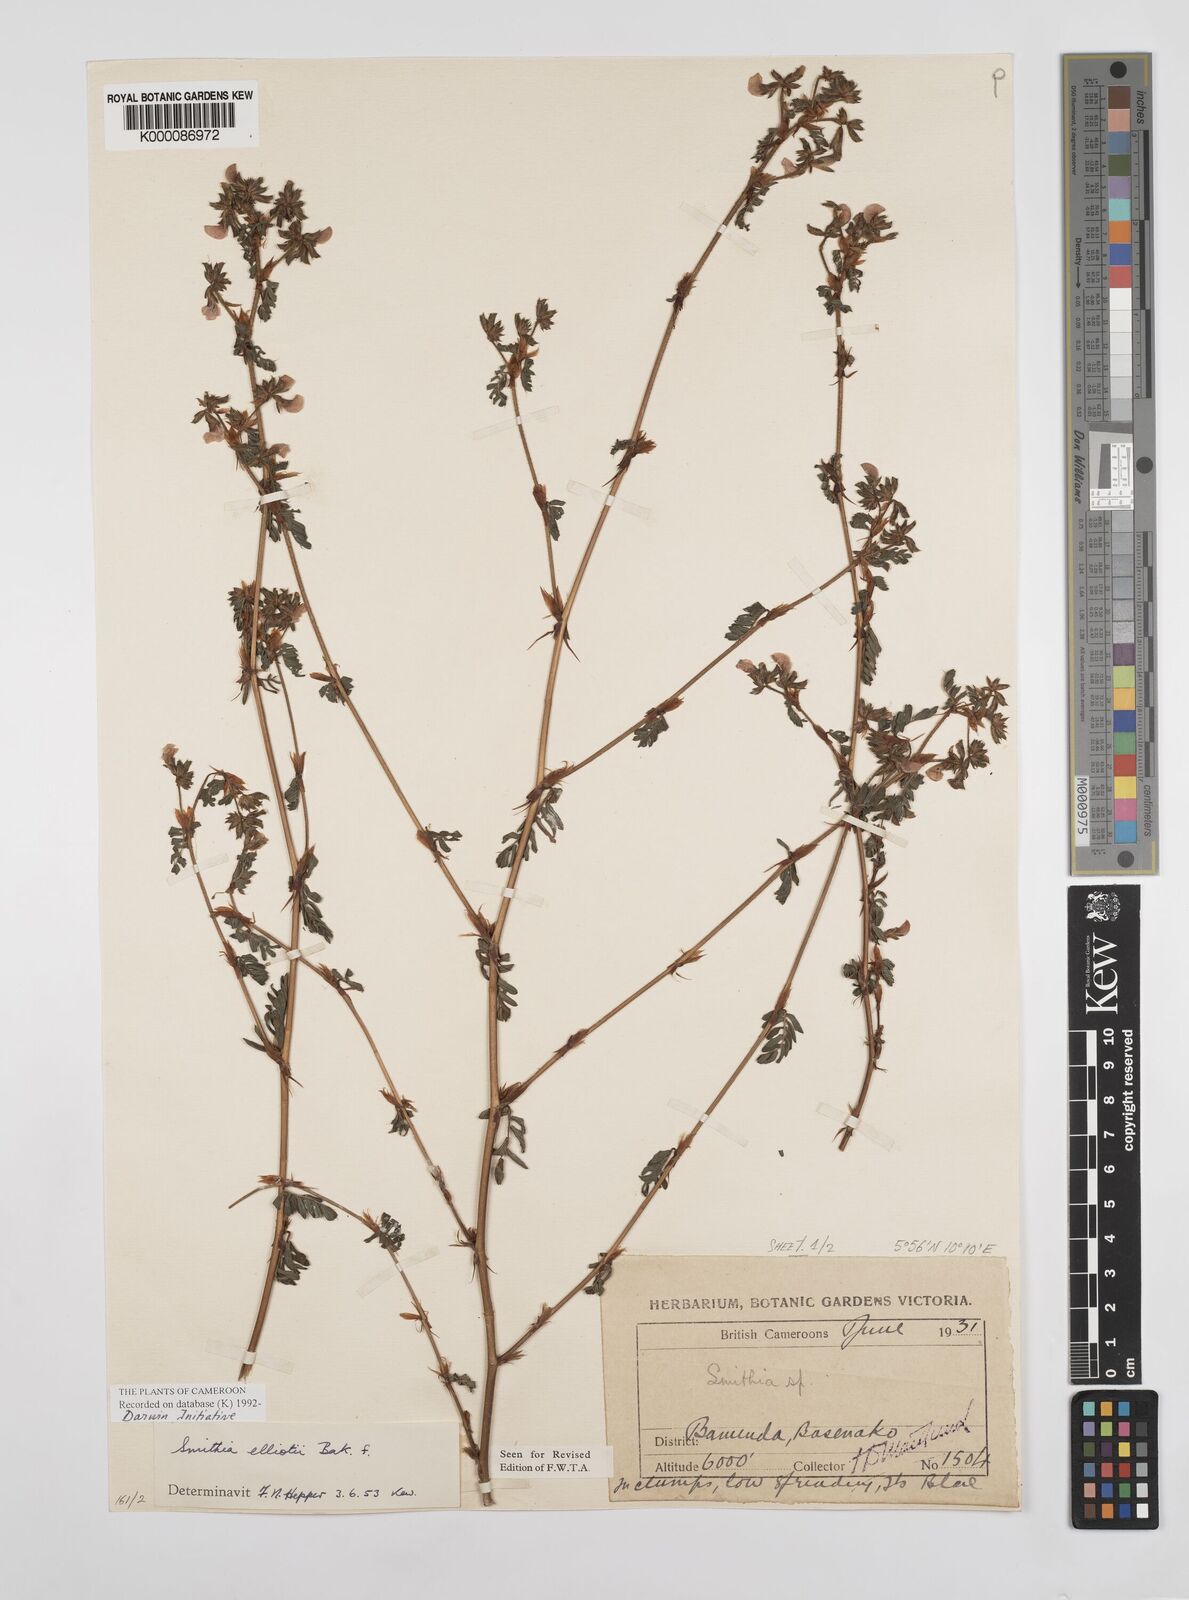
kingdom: Plantae
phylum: Tracheophyta
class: Magnoliopsida
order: Fabales
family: Fabaceae
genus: Smithia
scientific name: Smithia elliotii
